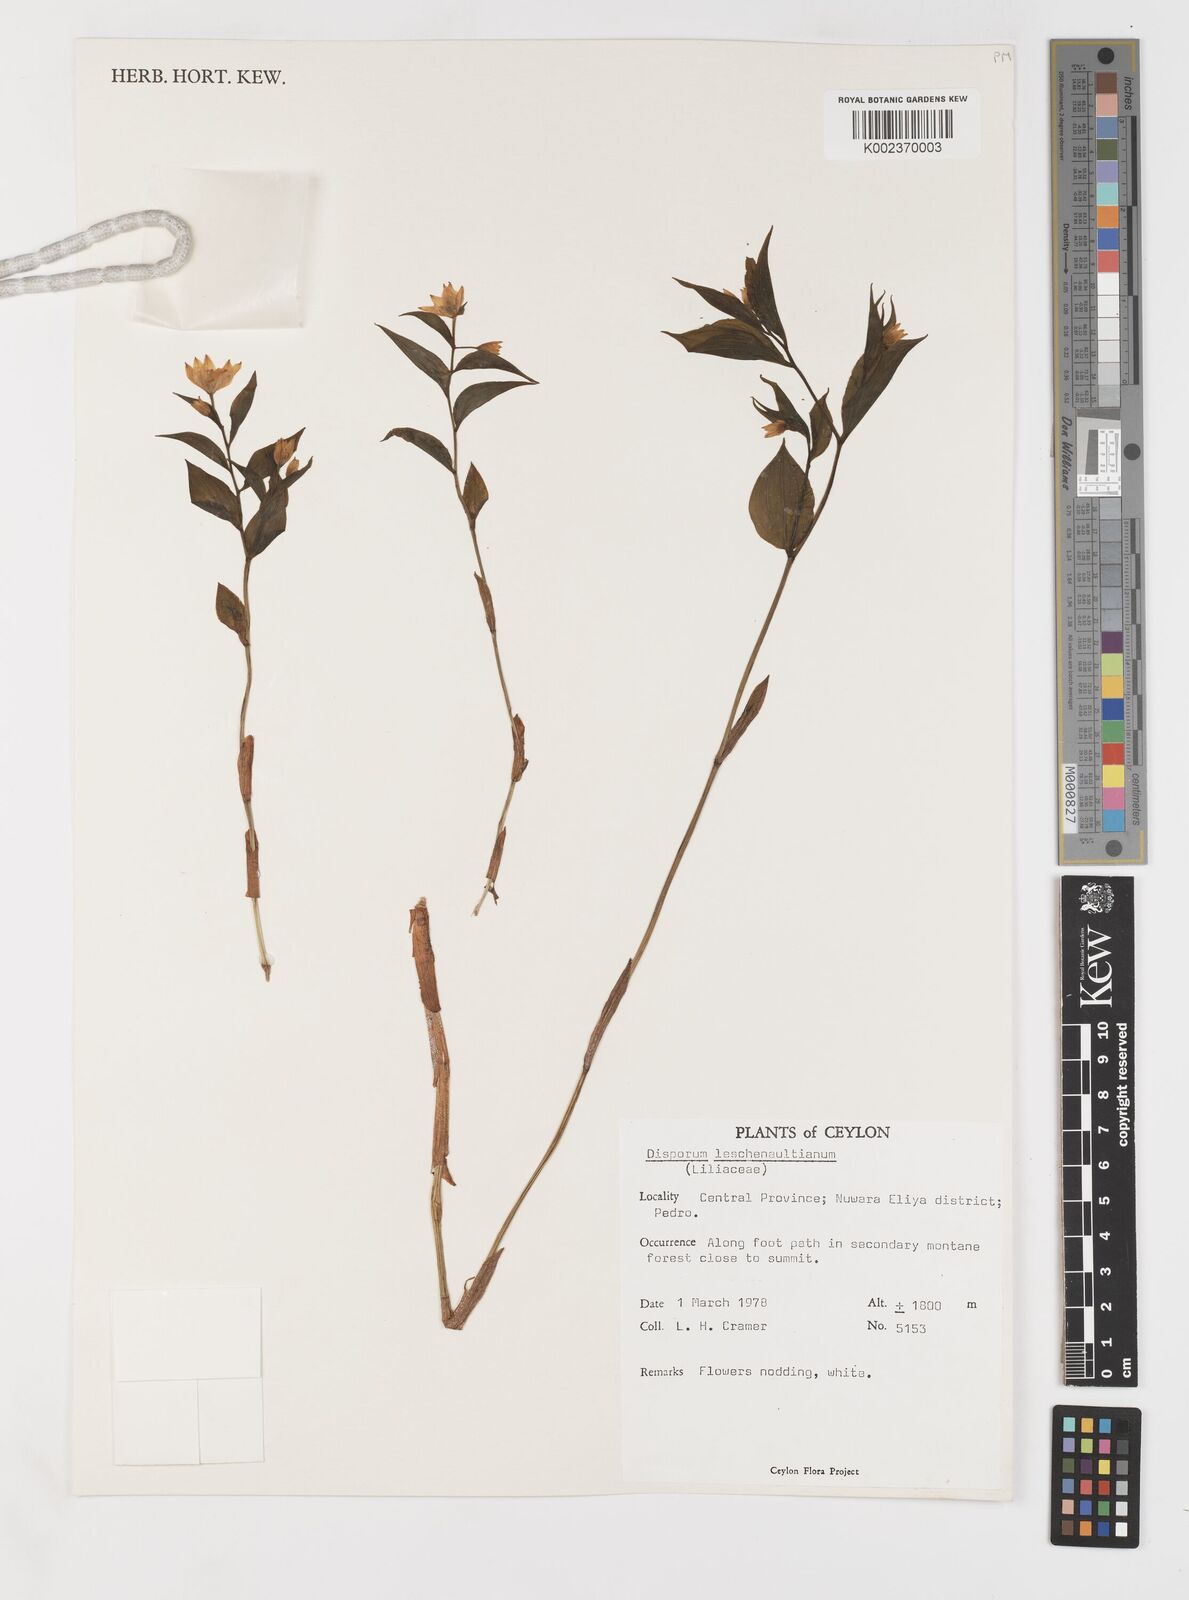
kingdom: Plantae
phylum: Tracheophyta
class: Liliopsida
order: Liliales
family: Colchicaceae
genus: Disporum
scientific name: Disporum cantoniense
